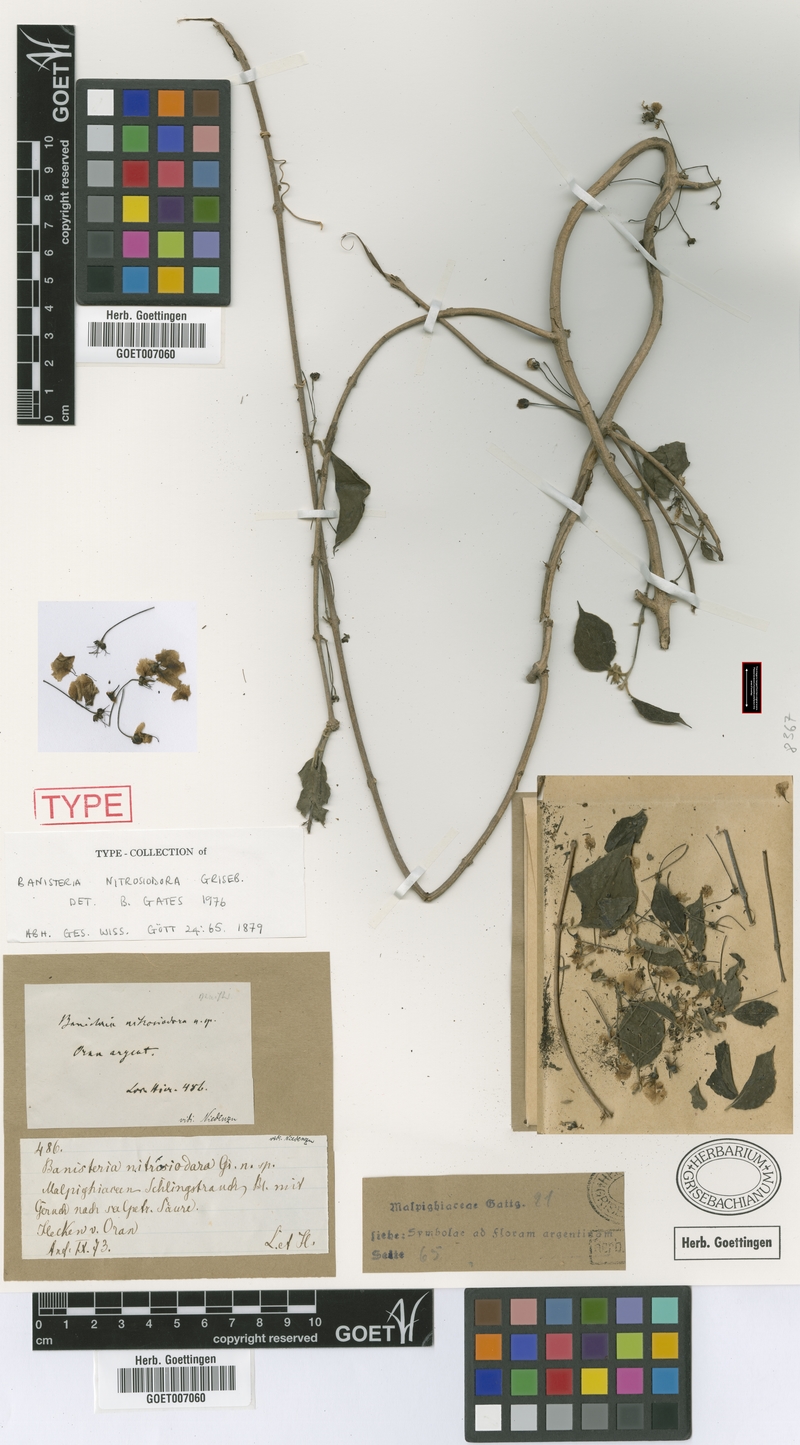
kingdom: Plantae
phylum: Tracheophyta
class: Magnoliopsida
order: Malpighiales
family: Malpighiaceae
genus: Diplopterys
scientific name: Diplopterys lutea
